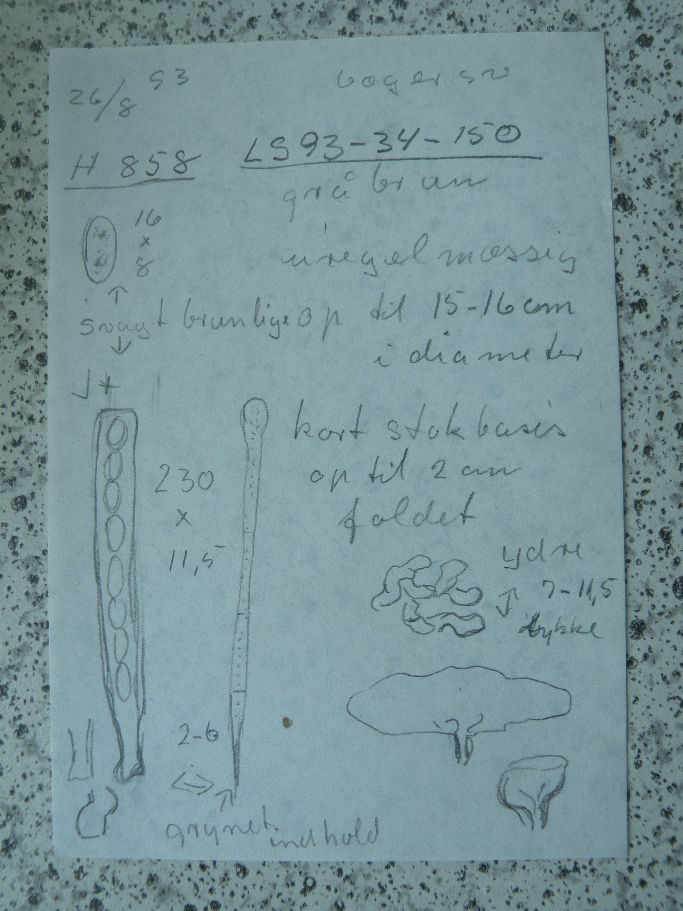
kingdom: Fungi
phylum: Ascomycota
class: Pezizomycetes
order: Pezizales
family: Pezizaceae
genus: Peziza
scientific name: Peziza repanda
